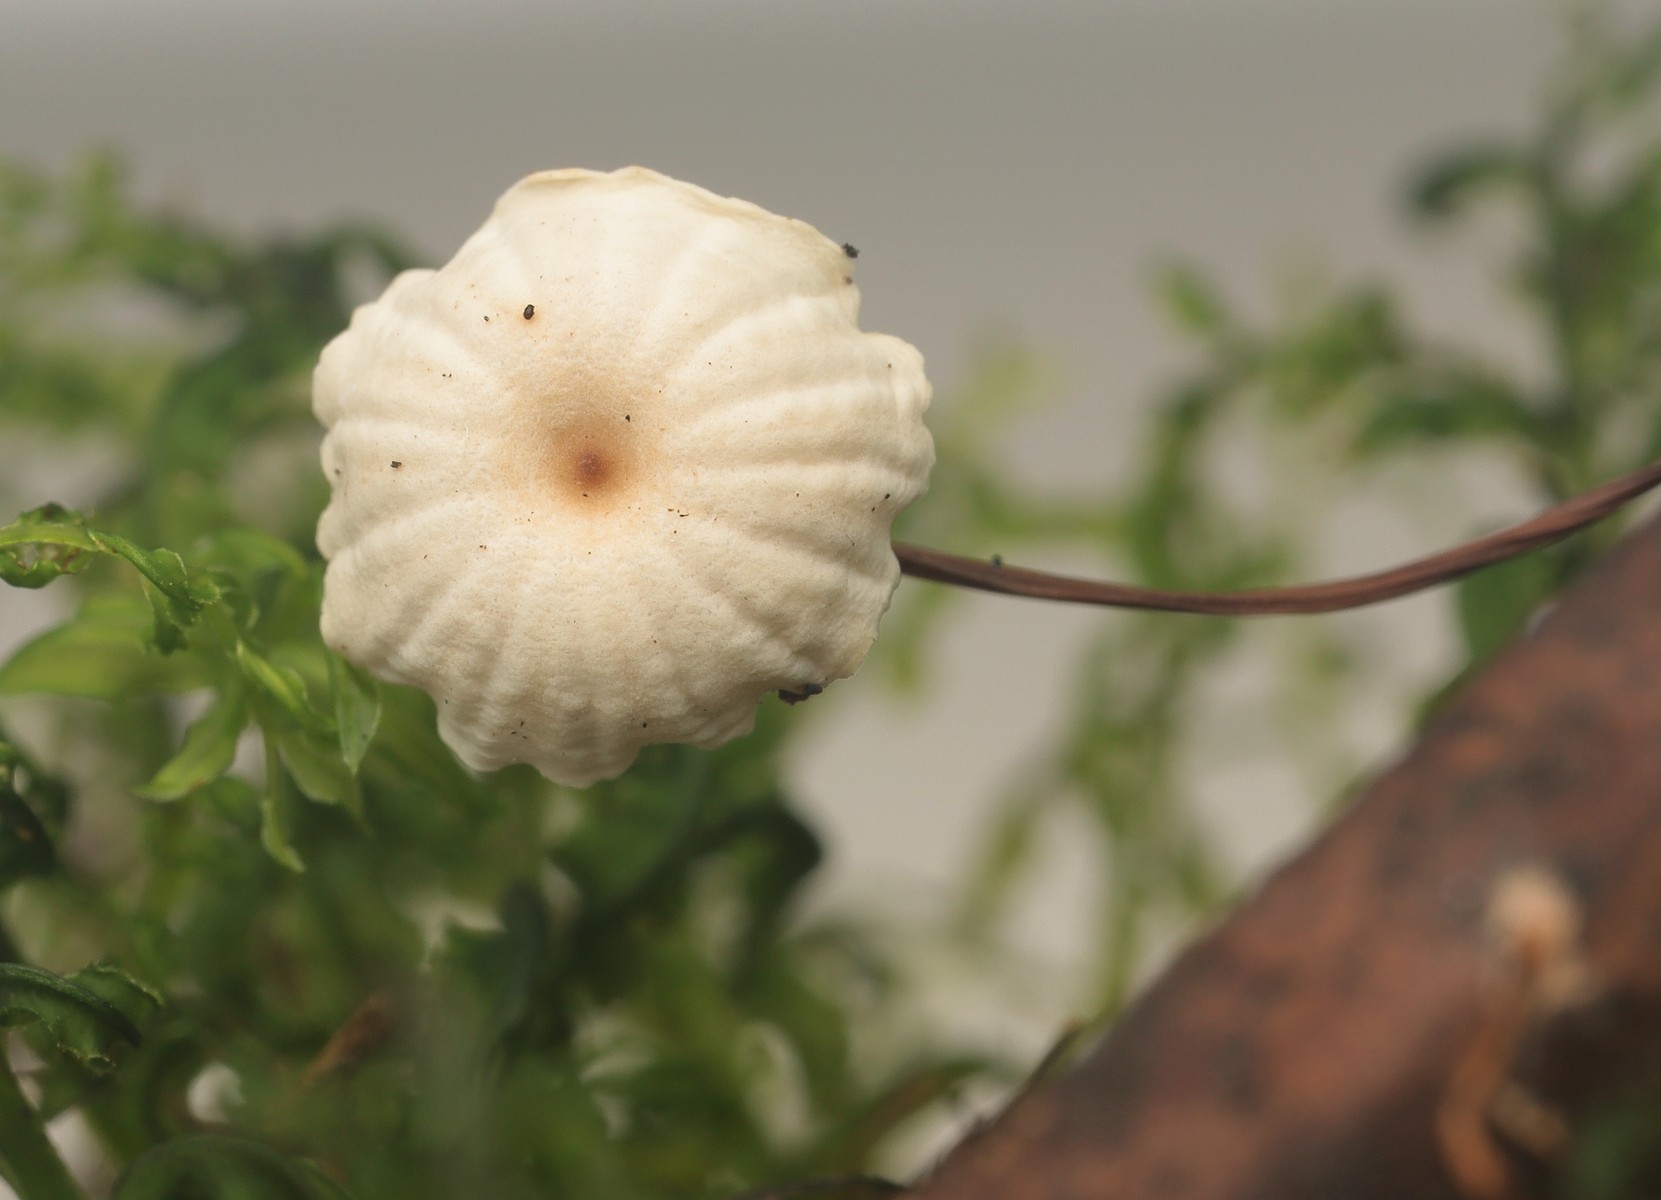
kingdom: Fungi
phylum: Basidiomycota
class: Agaricomycetes
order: Agaricales
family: Marasmiaceae
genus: Marasmius
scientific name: Marasmius rotula
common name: hjul-bruskhat
